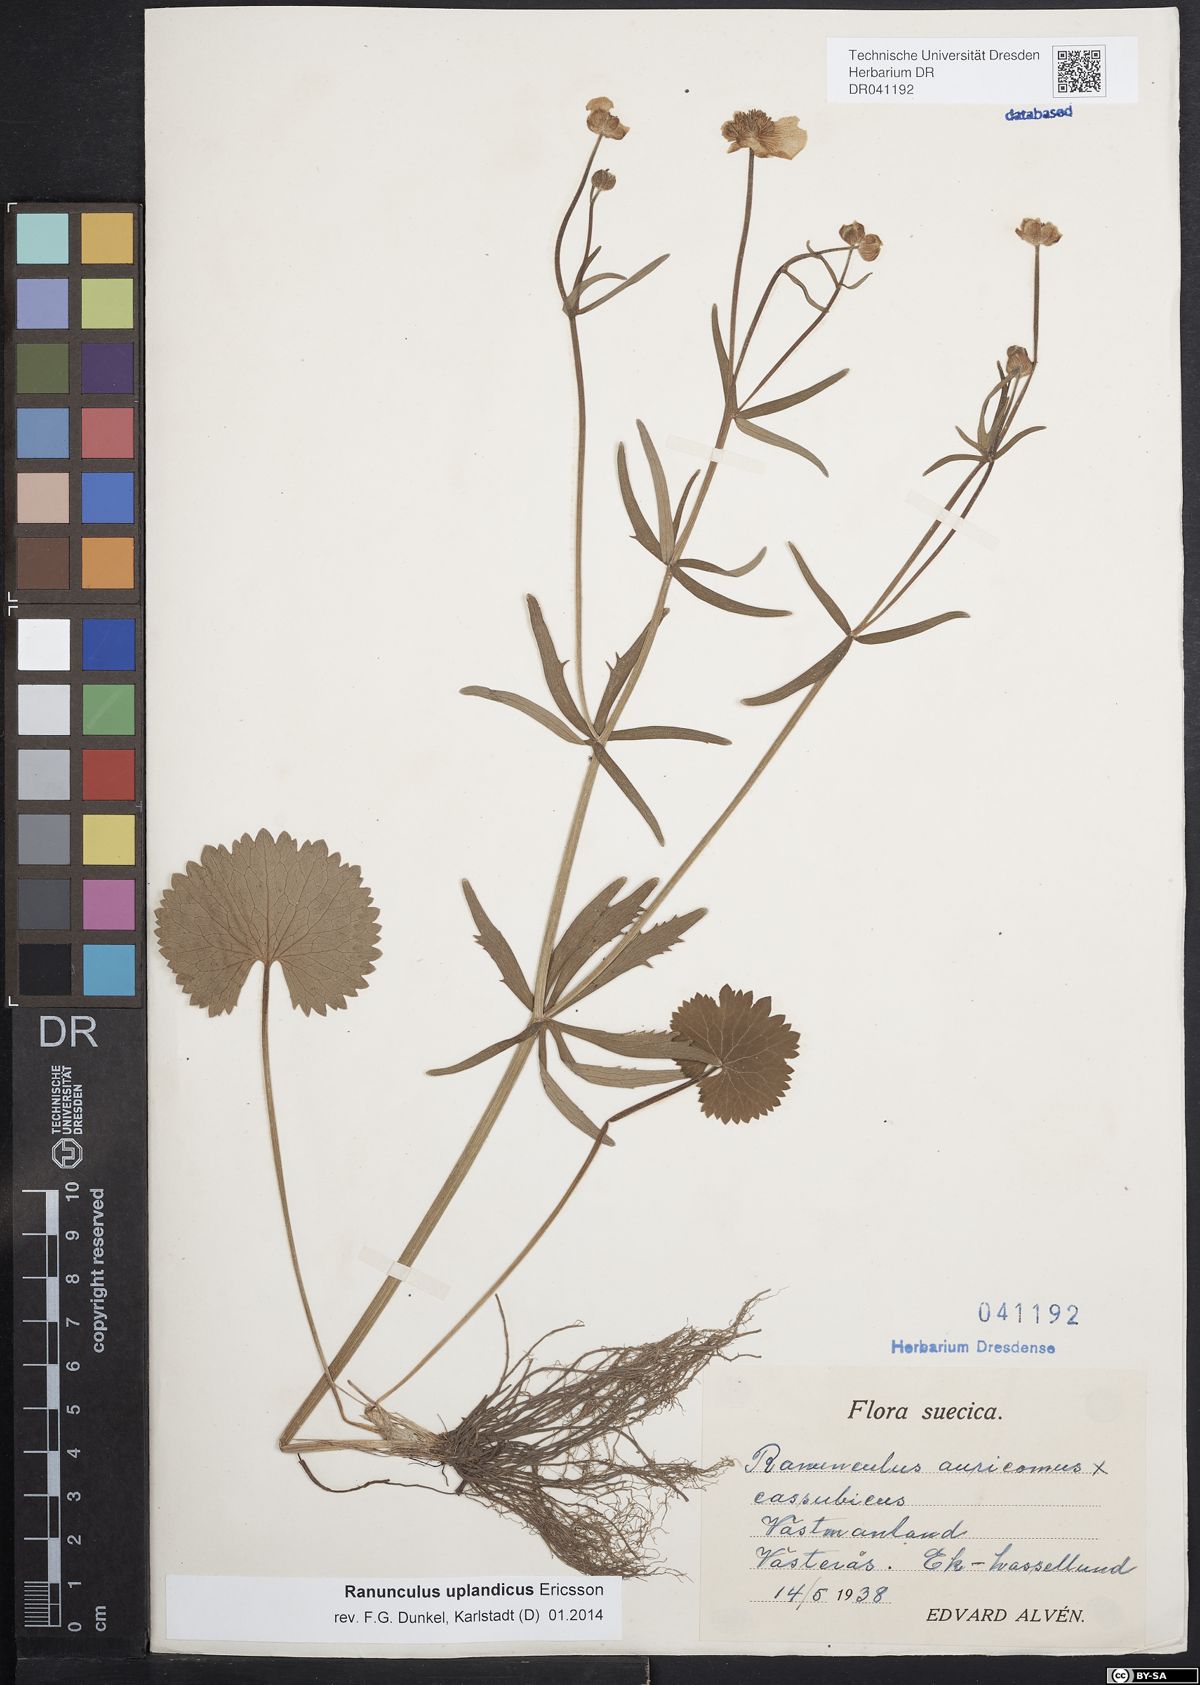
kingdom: Plantae
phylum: Tracheophyta
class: Magnoliopsida
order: Ranunculales
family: Ranunculaceae
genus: Ranunculus
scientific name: Ranunculus cassubicus
